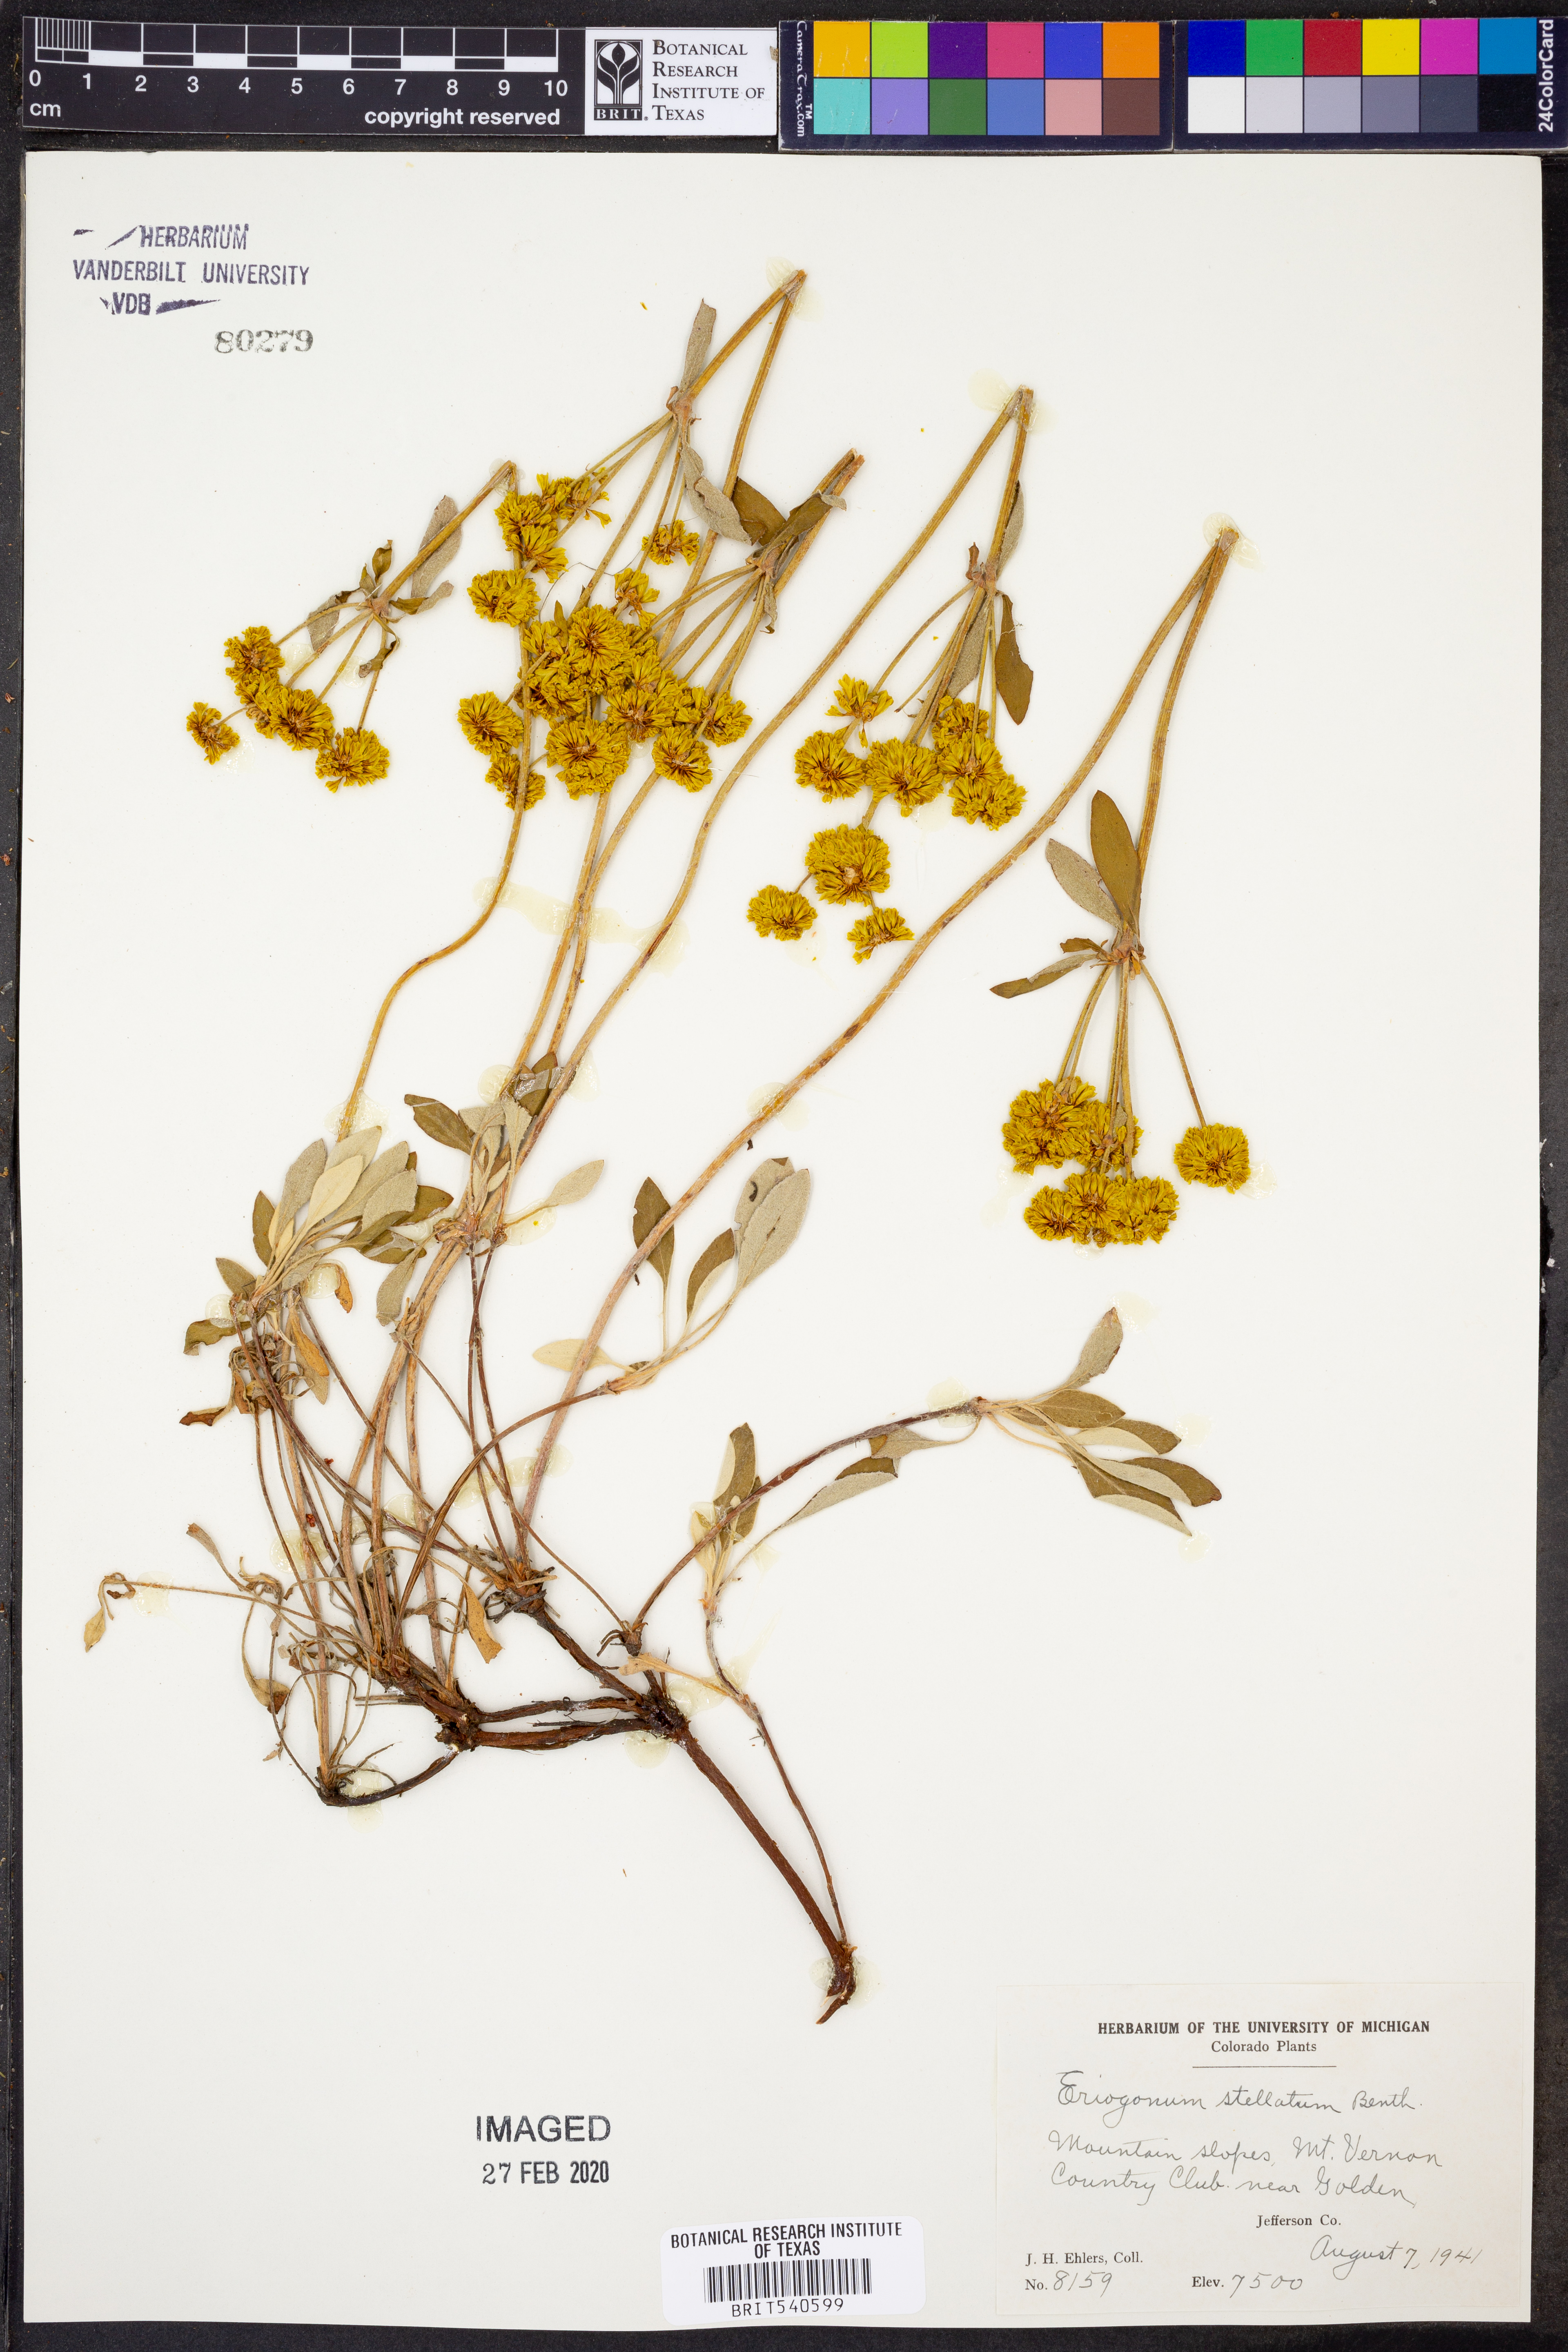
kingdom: Plantae
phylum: Tracheophyta
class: Magnoliopsida
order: Caryophyllales
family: Polygonaceae
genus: Eriogonum
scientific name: Eriogonum umbellatum
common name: Sulfur-buckwheat
